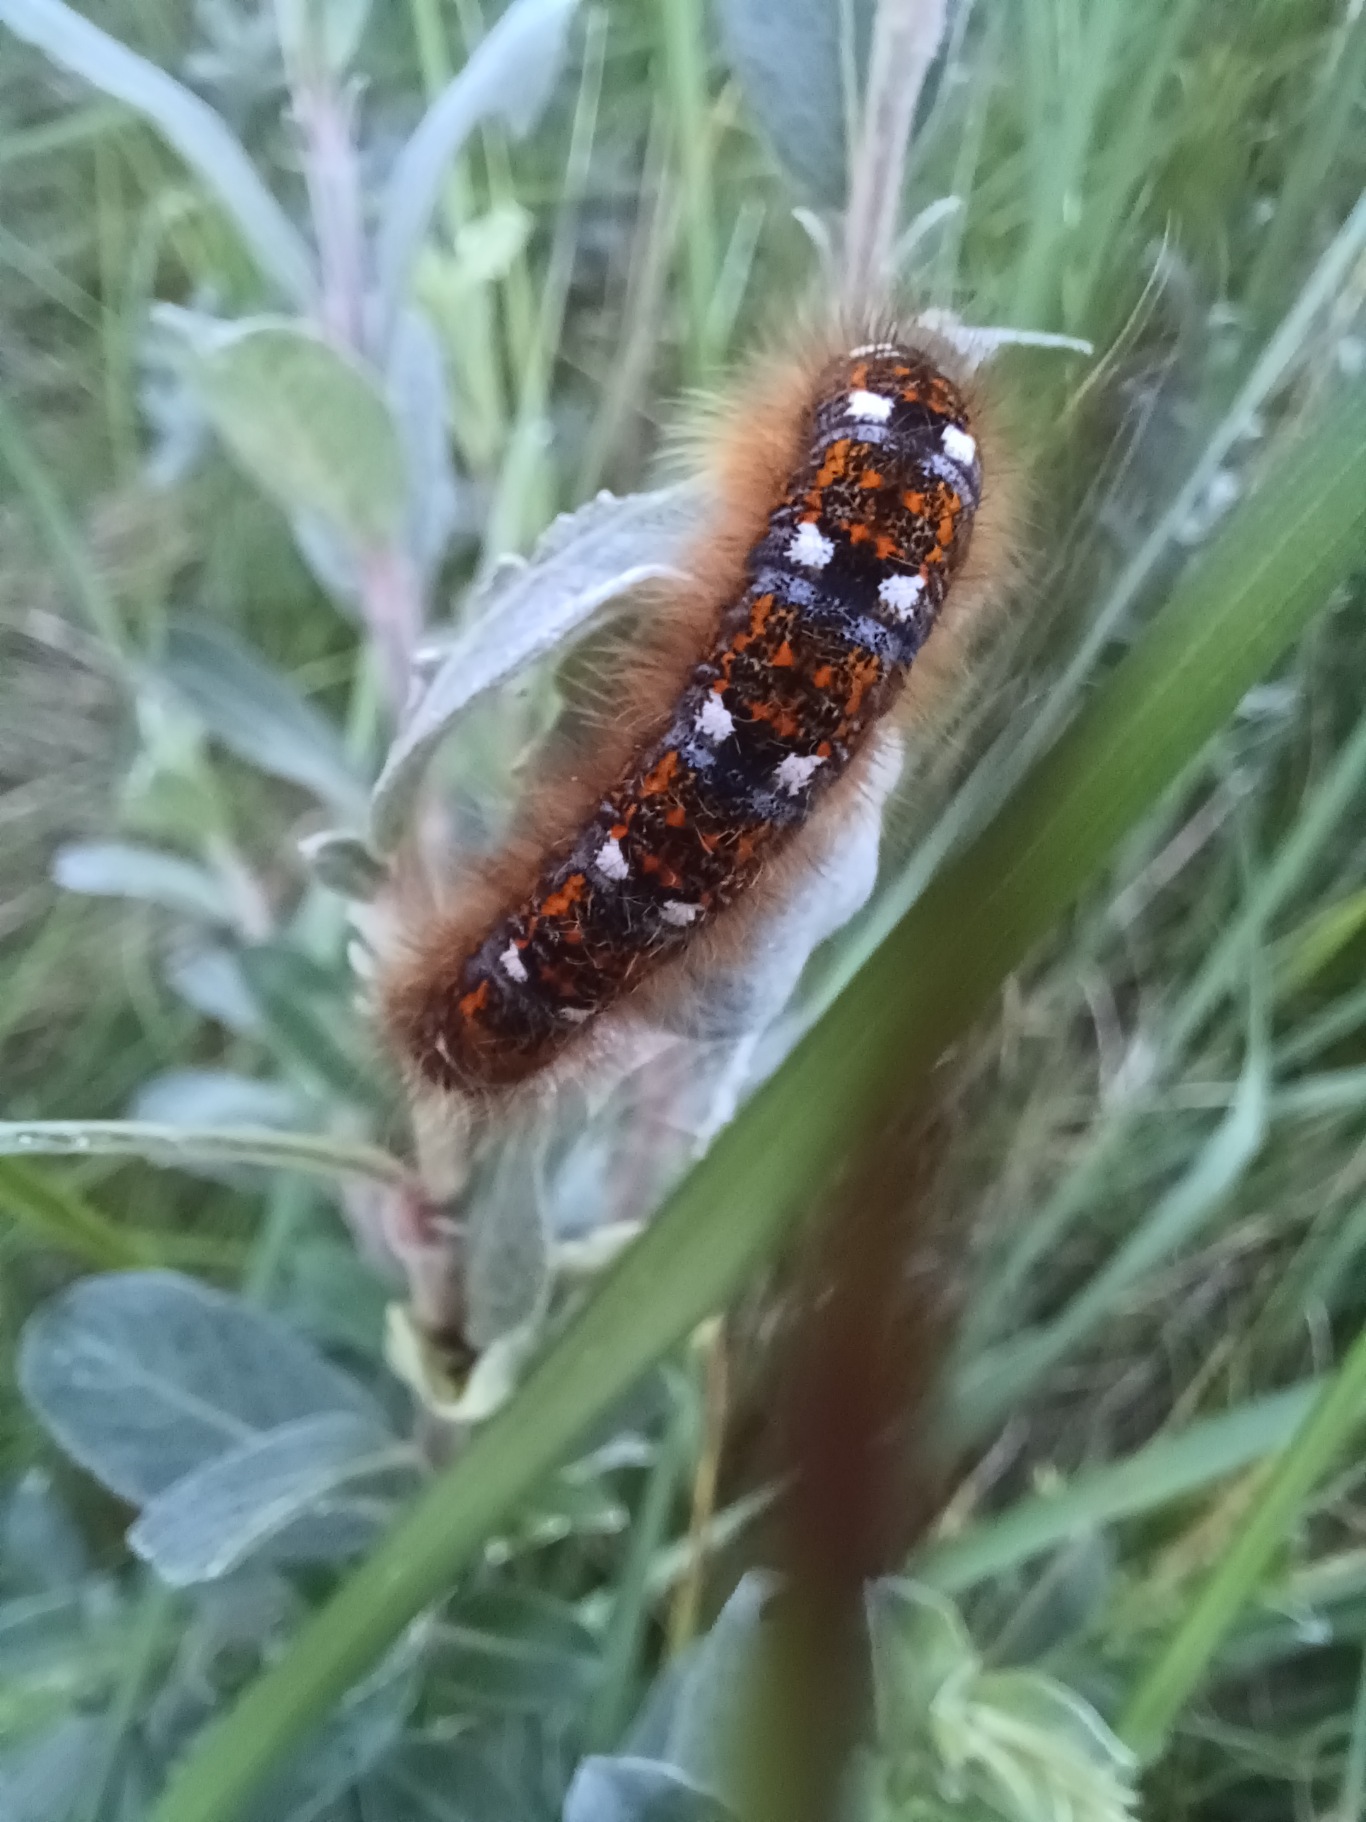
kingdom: Animalia
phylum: Arthropoda
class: Insecta
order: Lepidoptera
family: Lasiocampidae
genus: Phyllodesma
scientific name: Phyllodesma ilicifolia
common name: Hede-takspinder
